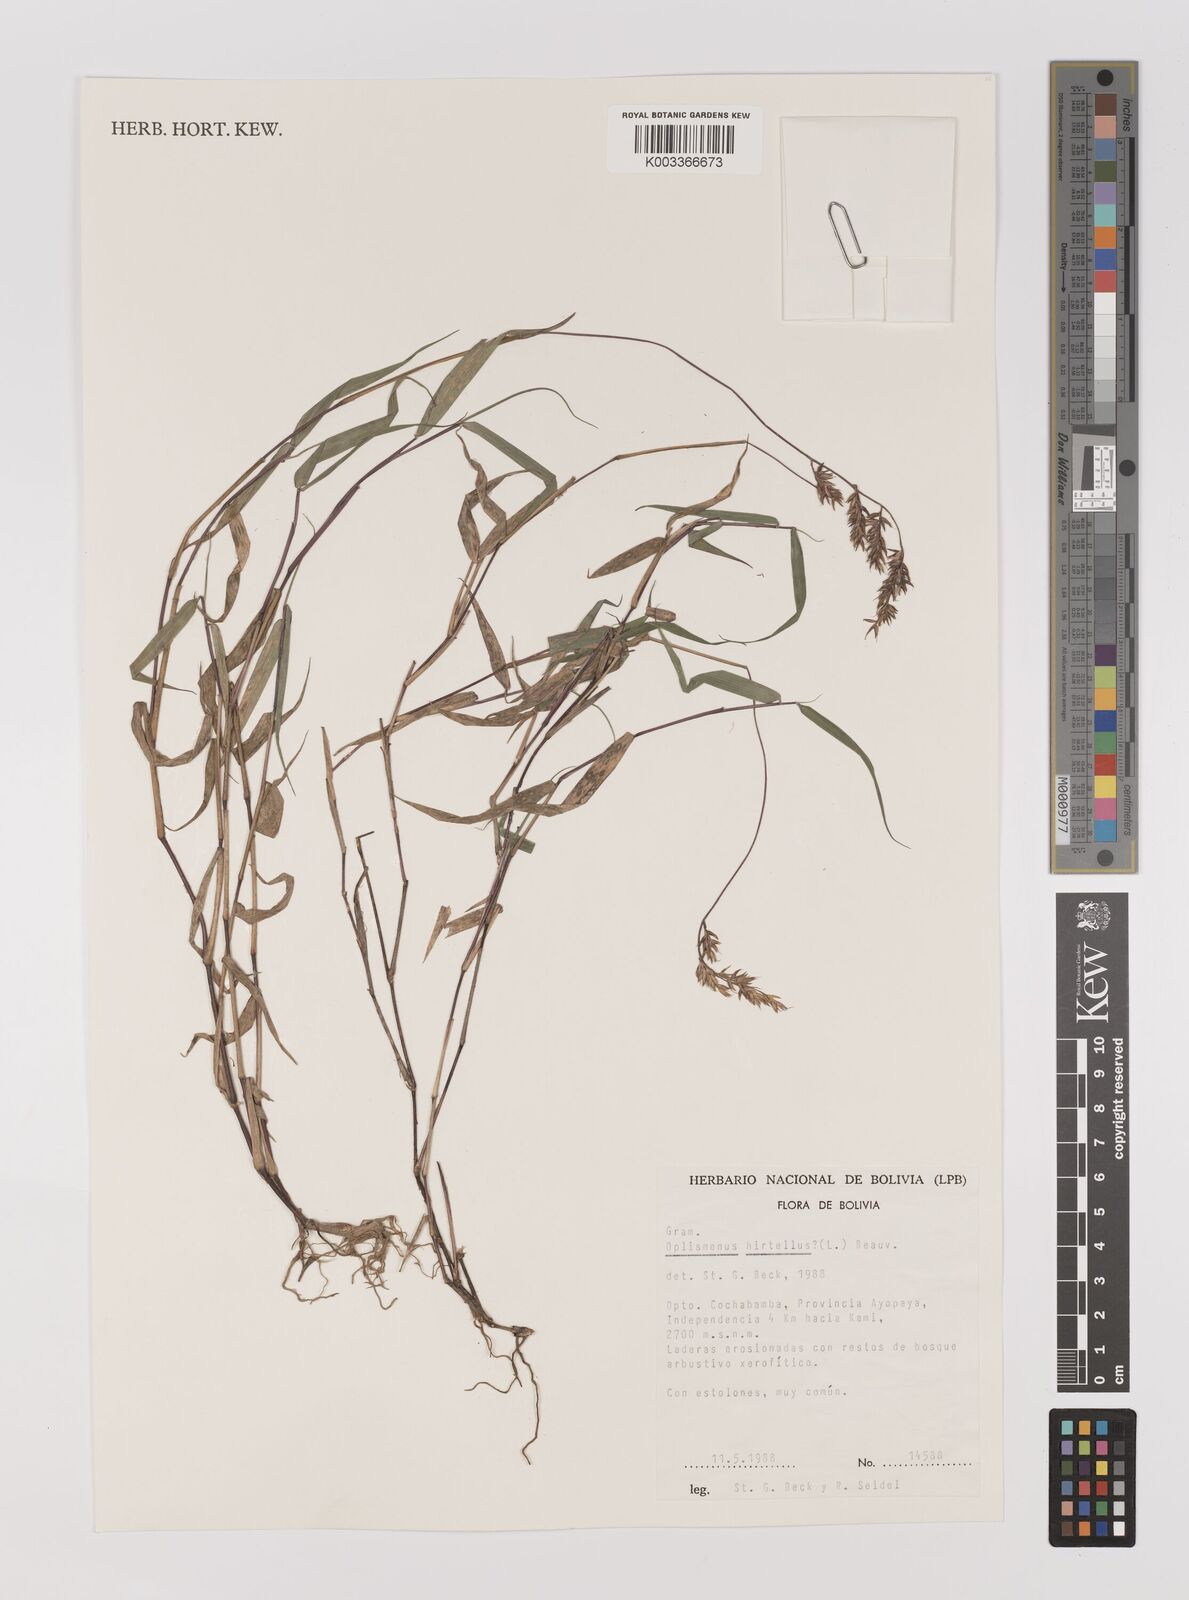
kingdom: Plantae
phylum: Tracheophyta
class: Liliopsida
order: Poales
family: Poaceae
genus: Oedochloa
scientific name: Oedochloa minarum
